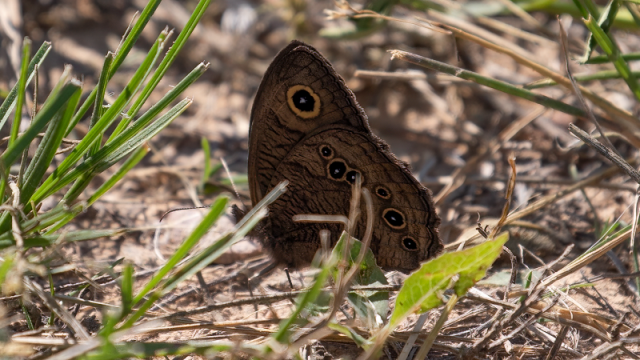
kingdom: Animalia
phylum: Arthropoda
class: Insecta
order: Lepidoptera
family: Nymphalidae
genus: Cercyonis
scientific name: Cercyonis pegala
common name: Common Wood-Nymph
